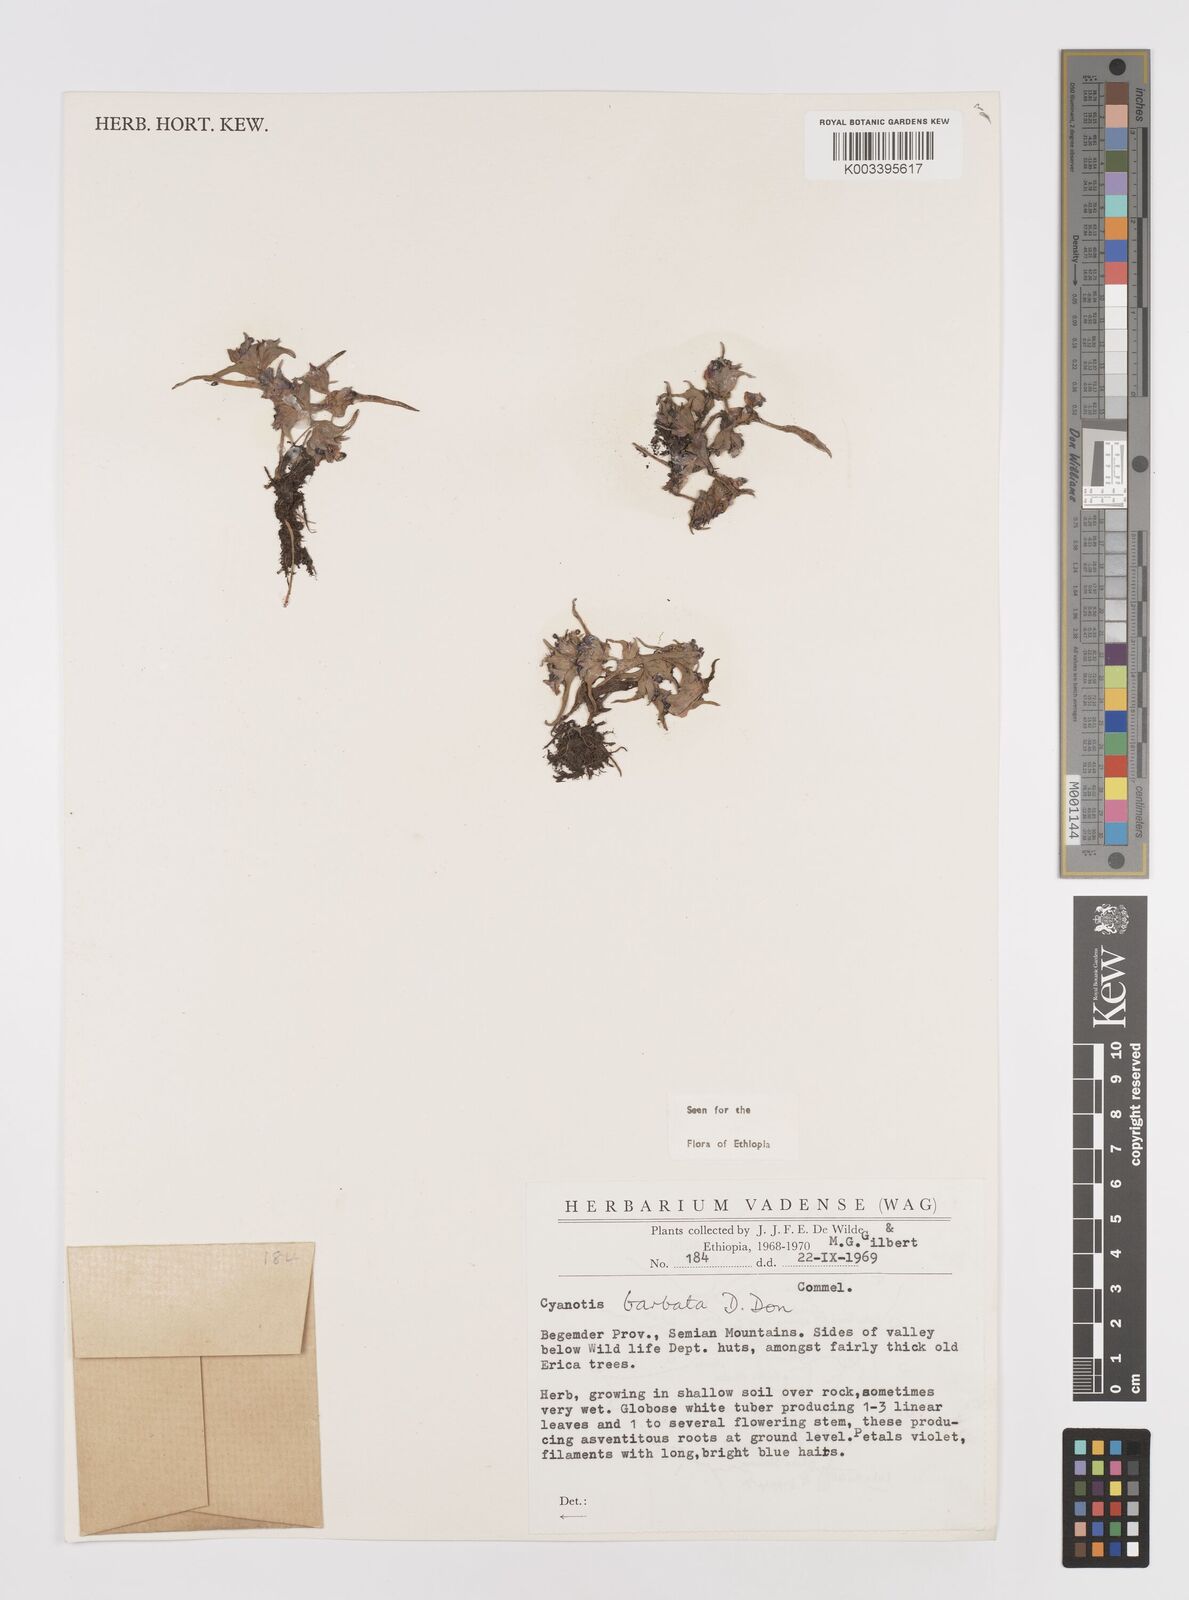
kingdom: Plantae
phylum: Tracheophyta
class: Liliopsida
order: Commelinales
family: Commelinaceae
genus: Cyanotis
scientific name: Cyanotis vaga
